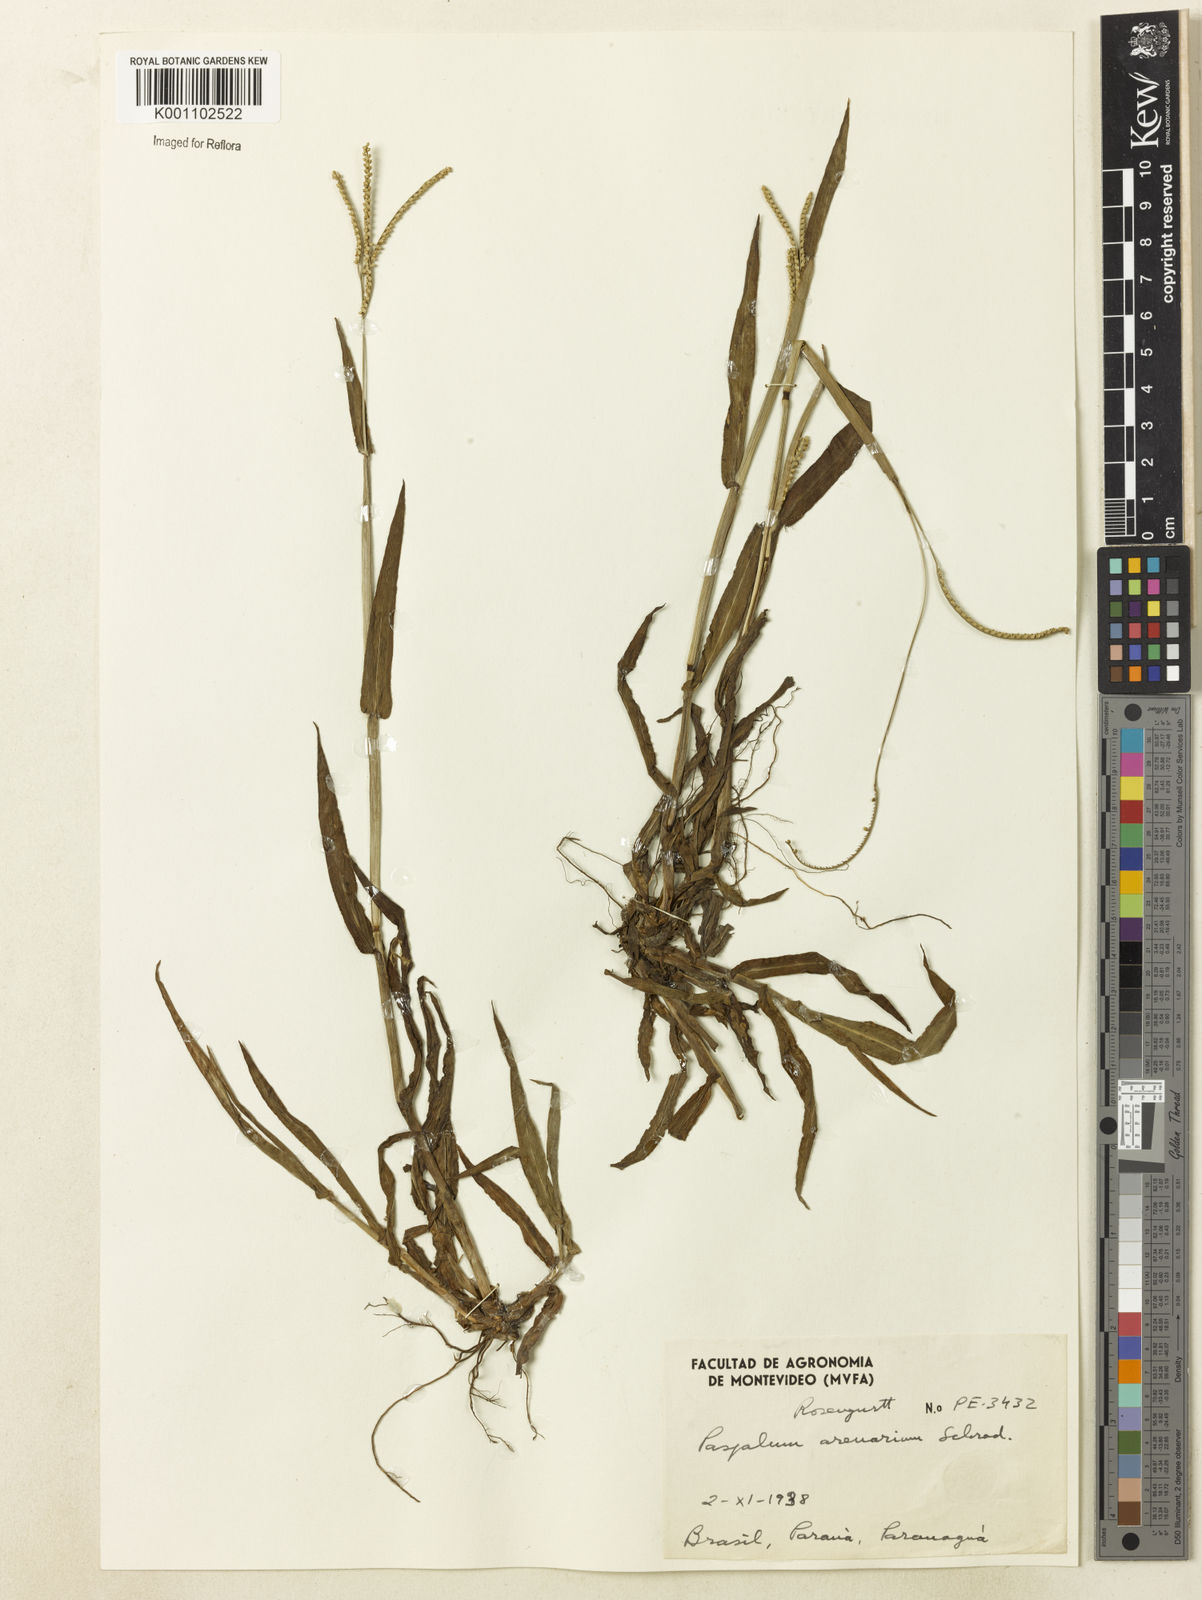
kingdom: Plantae
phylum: Tracheophyta
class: Liliopsida
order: Poales
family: Poaceae
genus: Paspalum
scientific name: Paspalum arenarium
